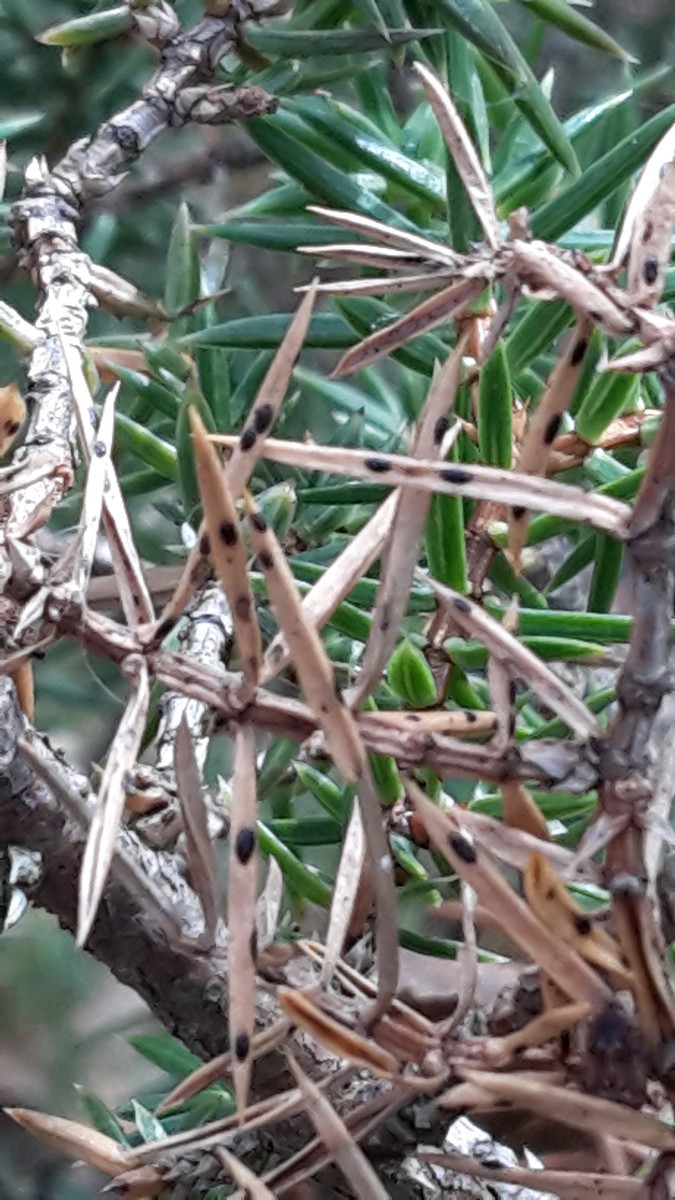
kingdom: Fungi
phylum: Ascomycota
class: Leotiomycetes
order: Rhytismatales
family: Rhytismataceae
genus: Lophodermium
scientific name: Lophodermium juniperinum
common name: ene-fureplet
